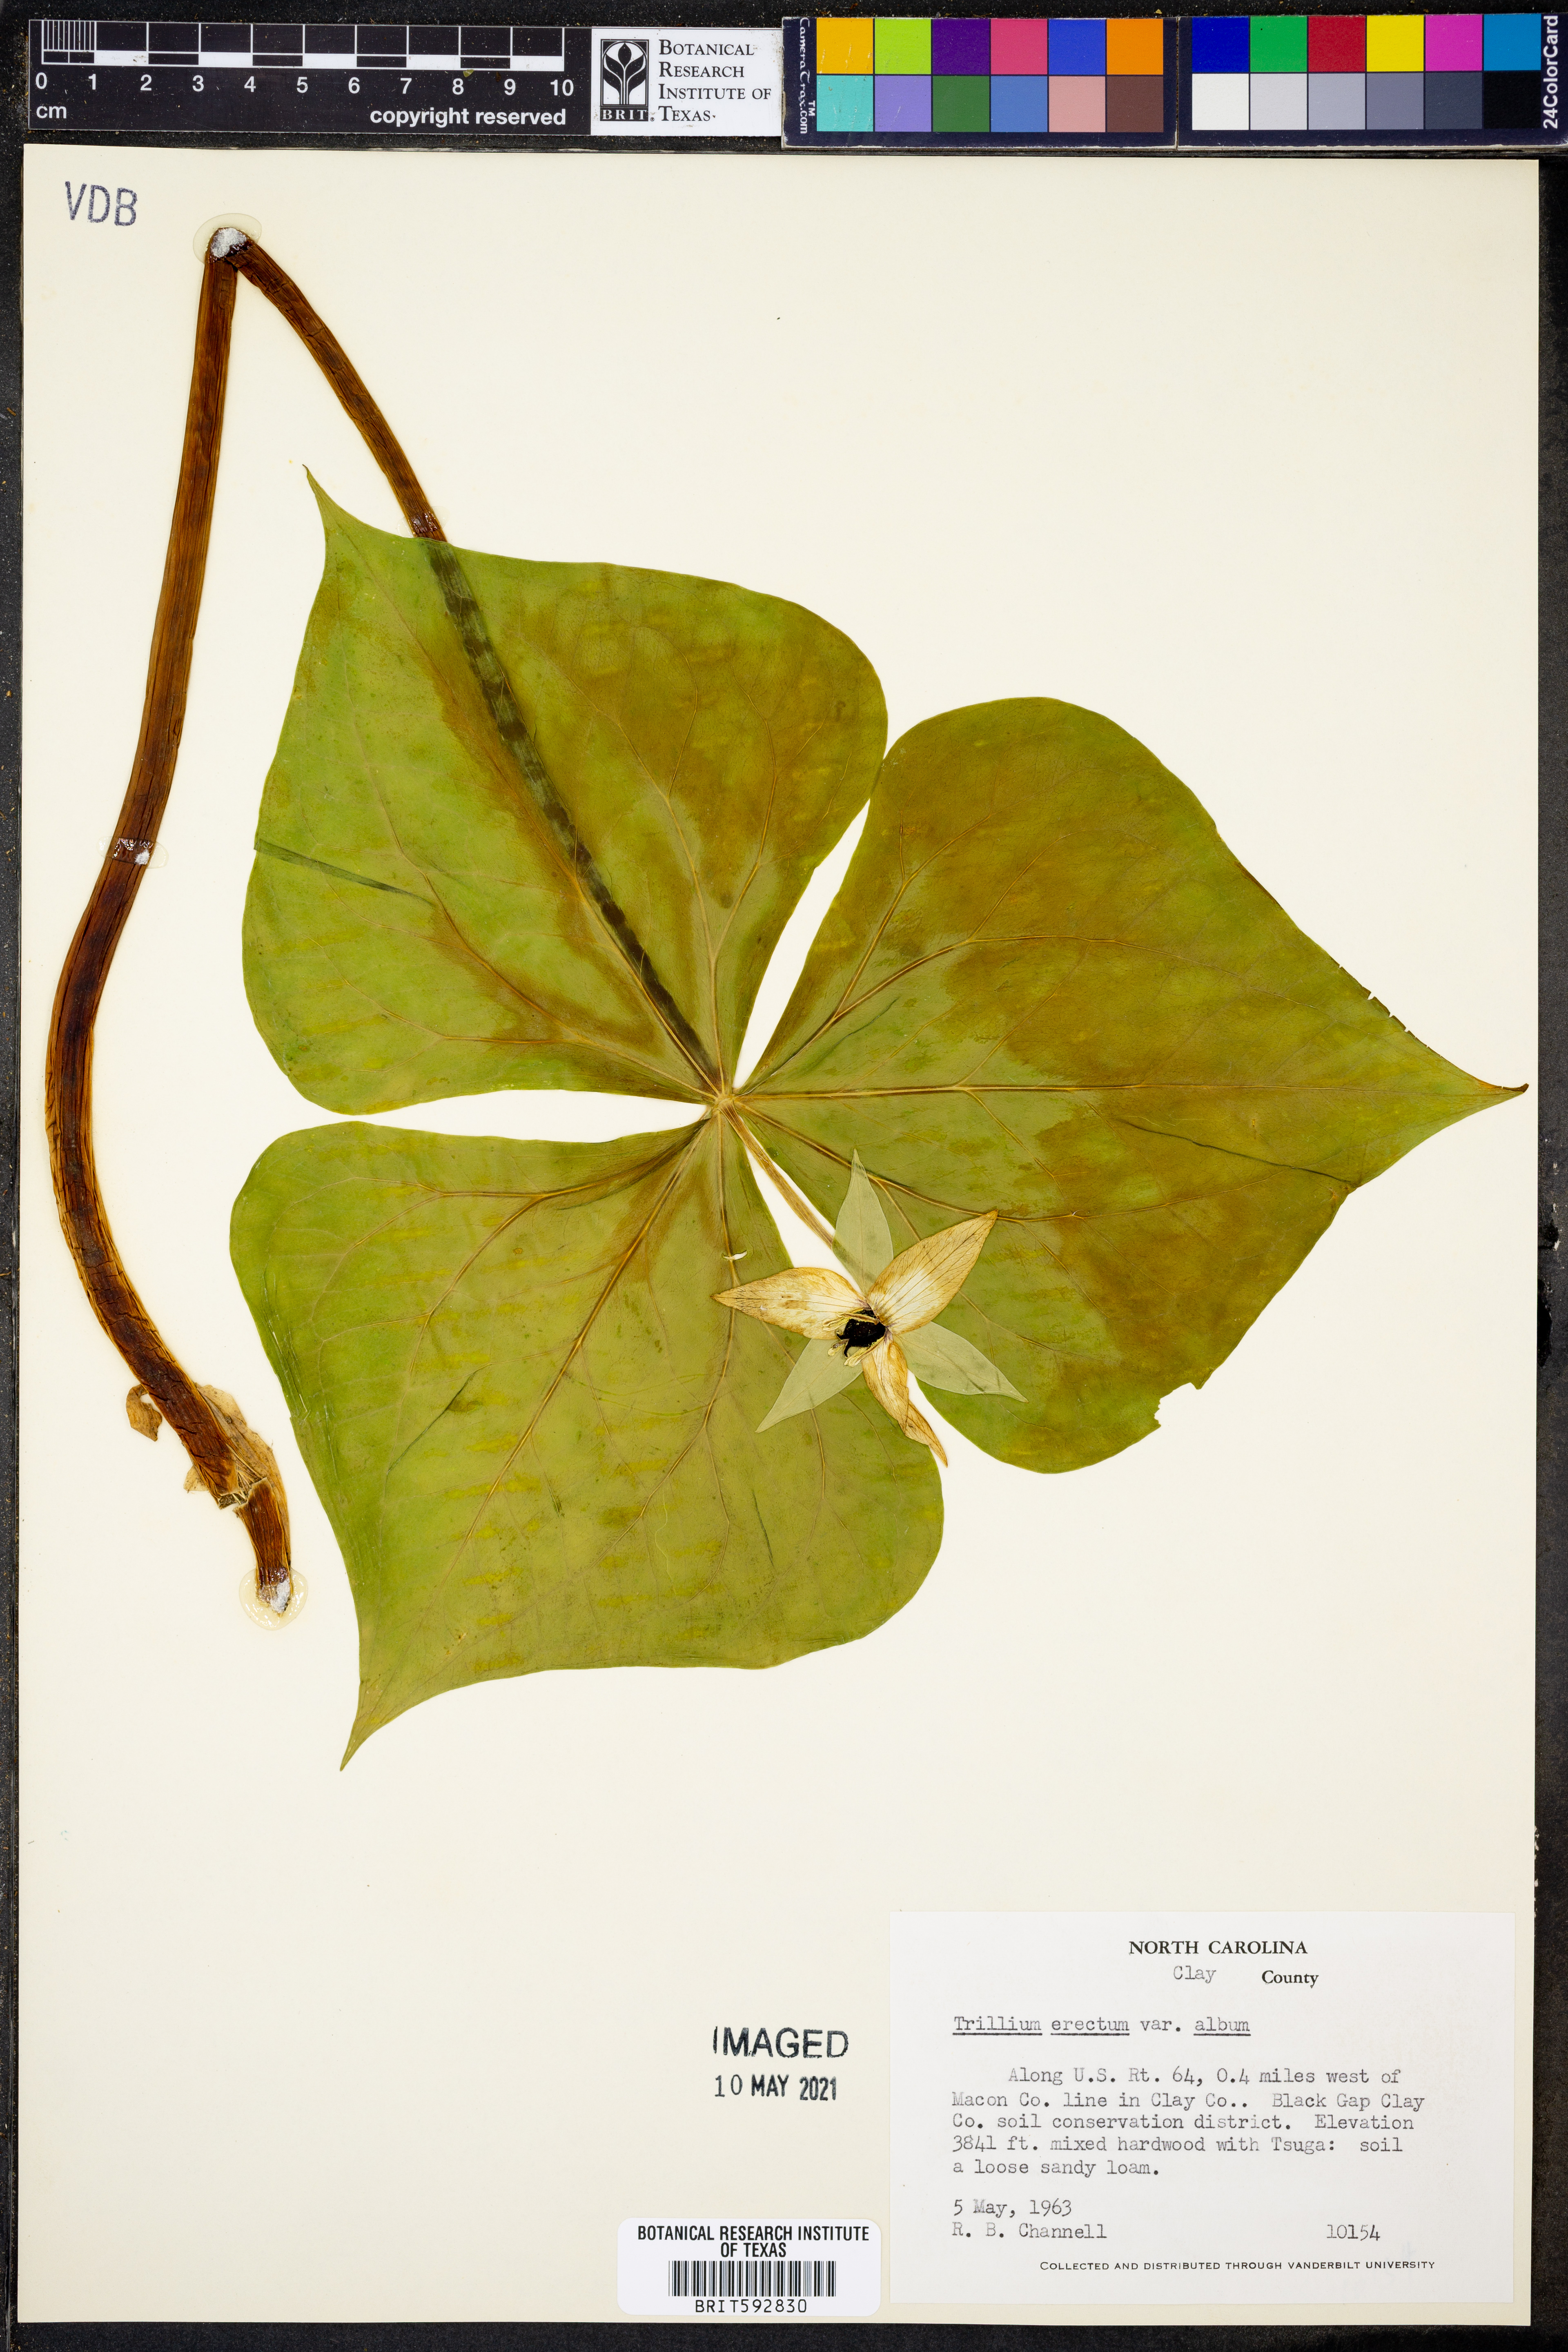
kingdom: Plantae
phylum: Tracheophyta
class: Liliopsida
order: Liliales
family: Melanthiaceae
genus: Trillium
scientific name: Trillium erectum
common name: Purple trillium
